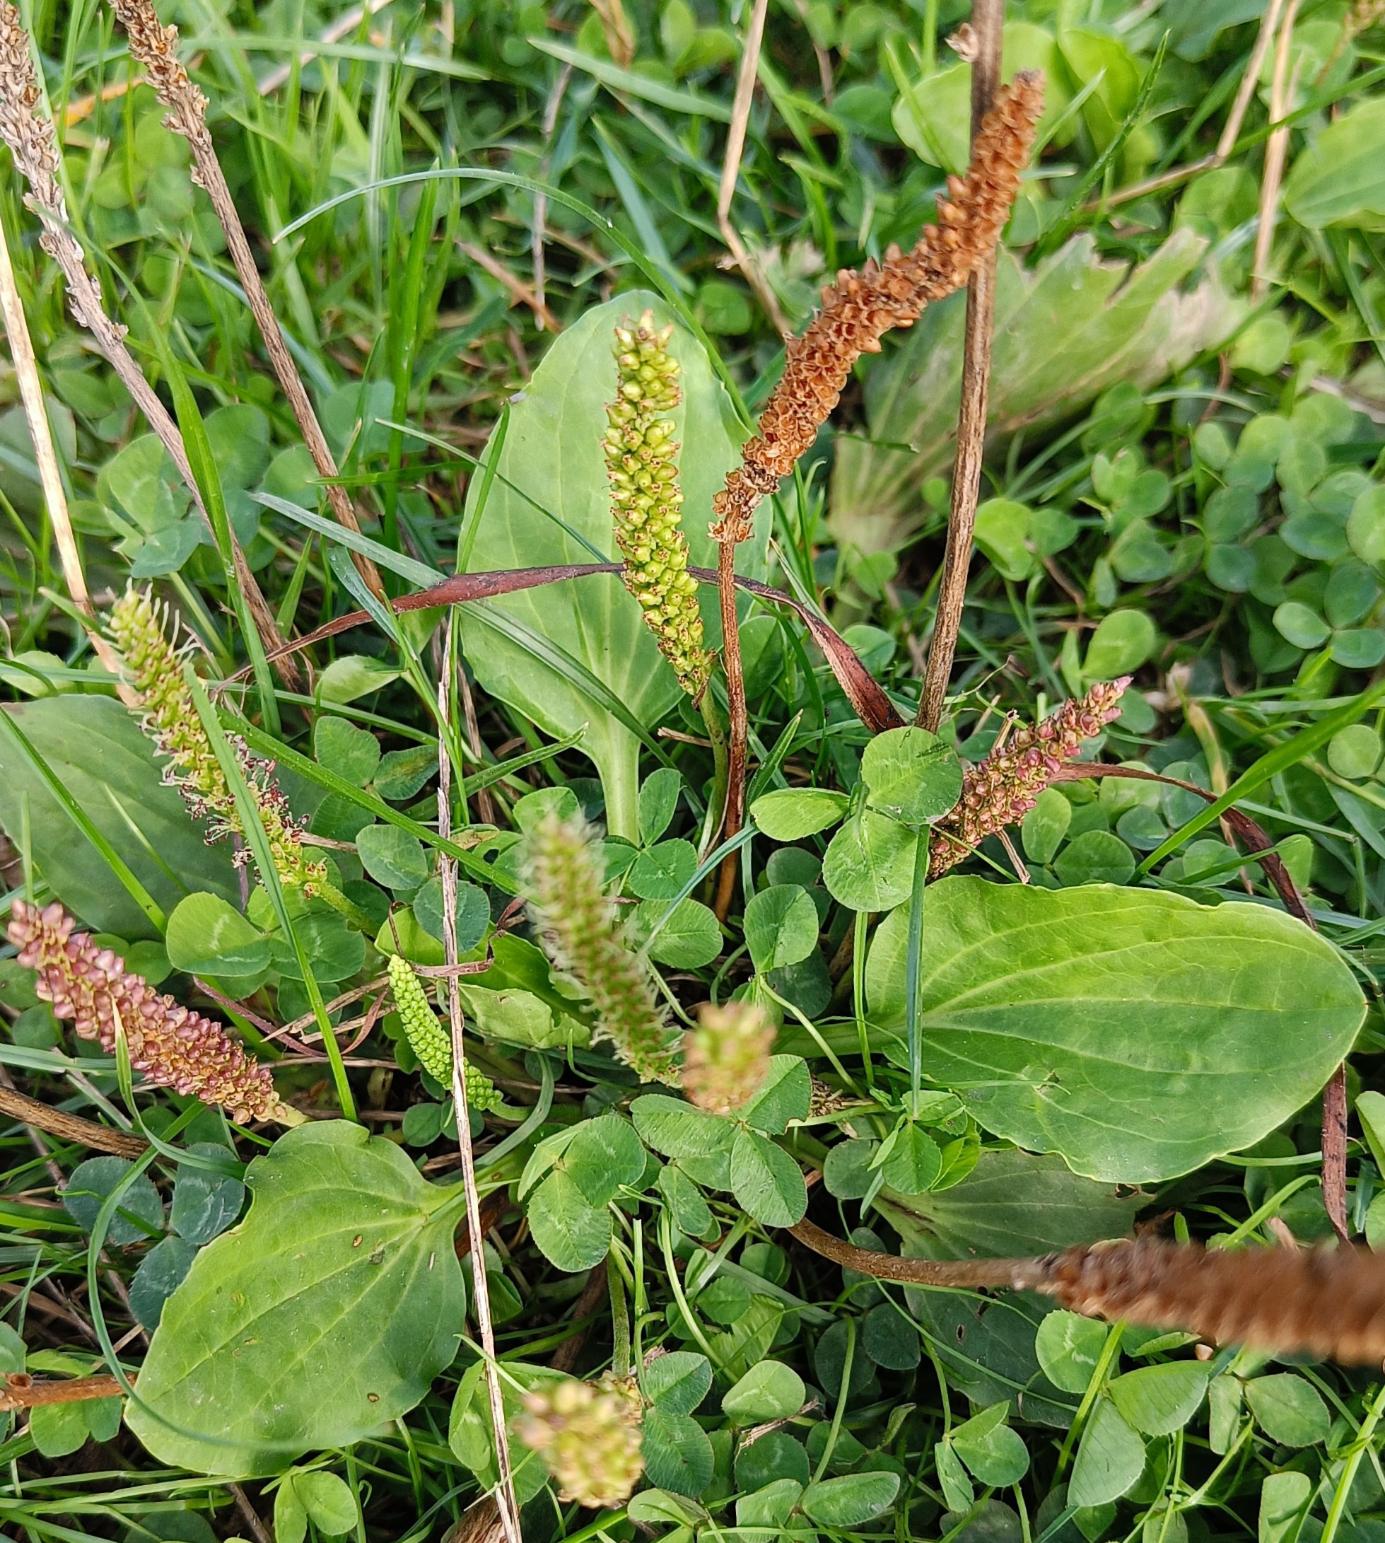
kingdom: Plantae
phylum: Tracheophyta
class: Magnoliopsida
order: Lamiales
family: Plantaginaceae
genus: Plantago
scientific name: Plantago major
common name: Glat vejbred
